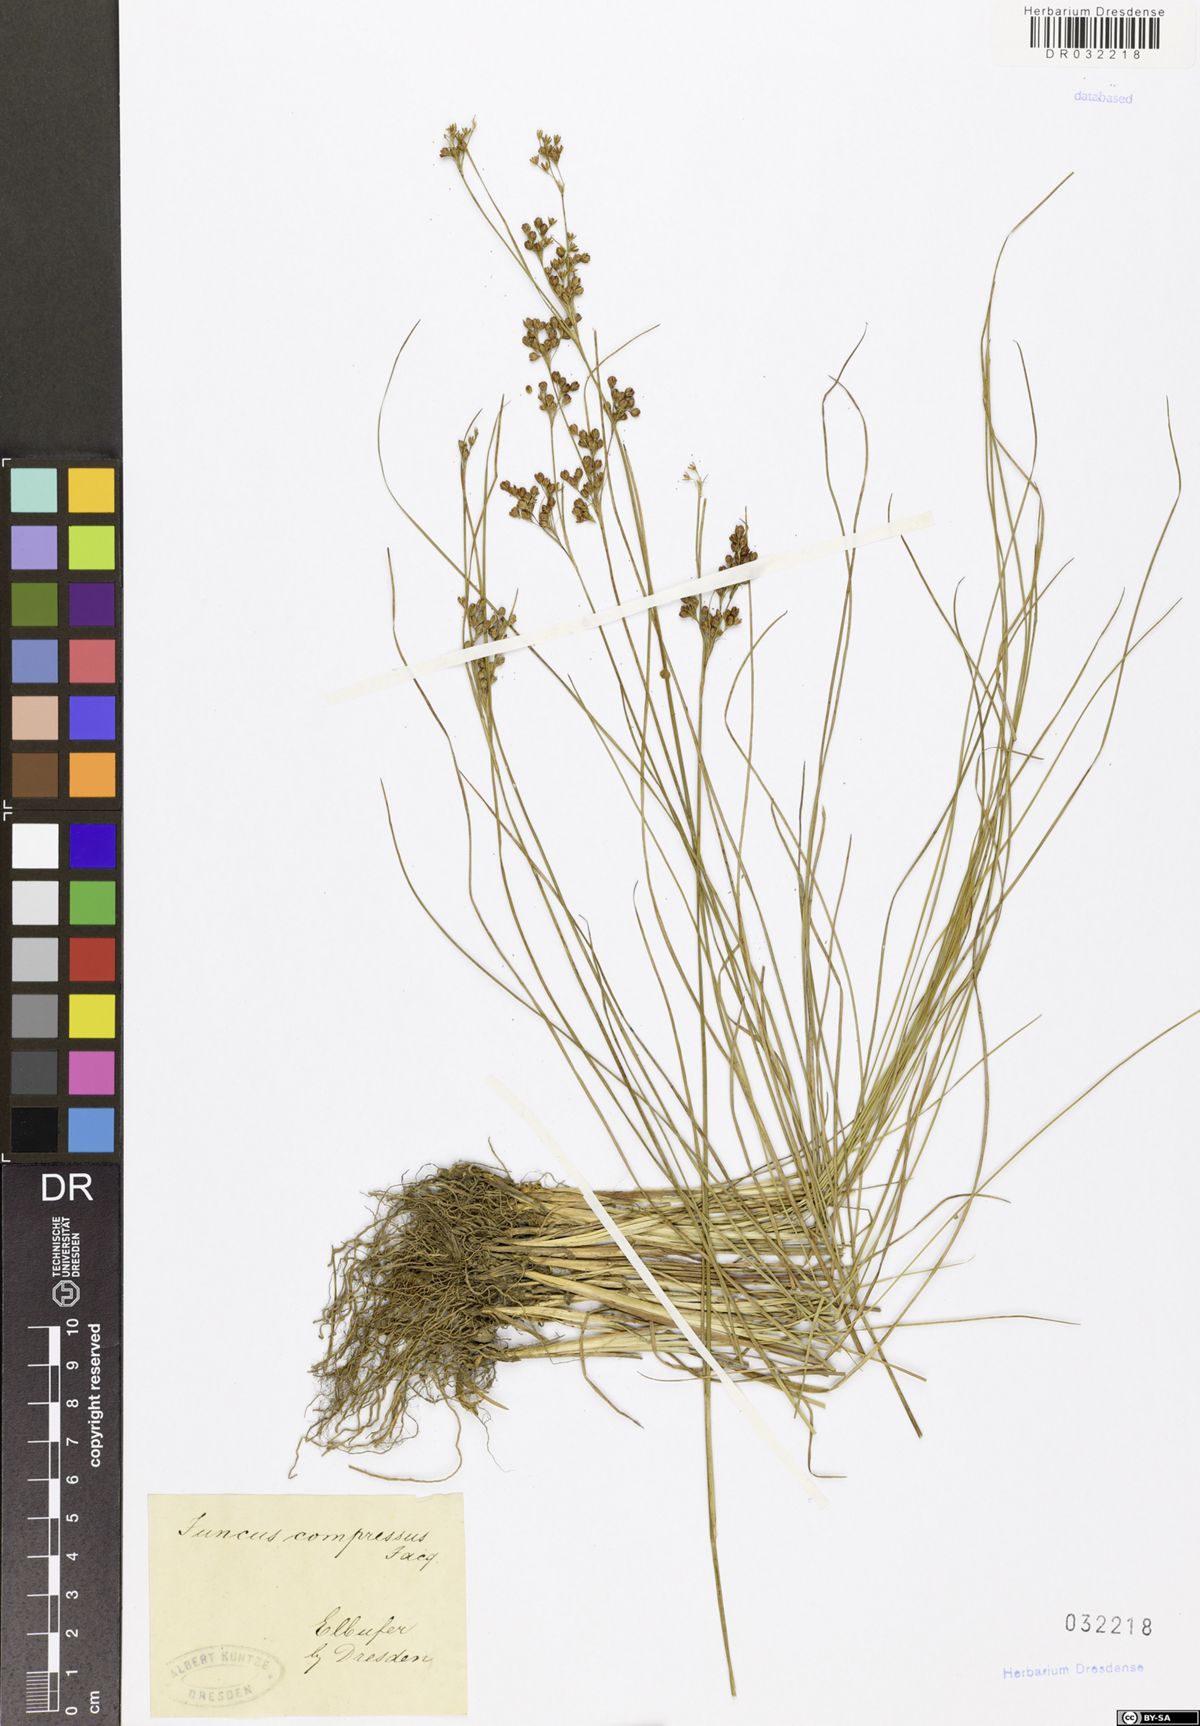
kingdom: Plantae
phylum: Tracheophyta
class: Liliopsida
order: Poales
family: Juncaceae
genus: Juncus
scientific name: Juncus compressus
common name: Round-fruited rush
